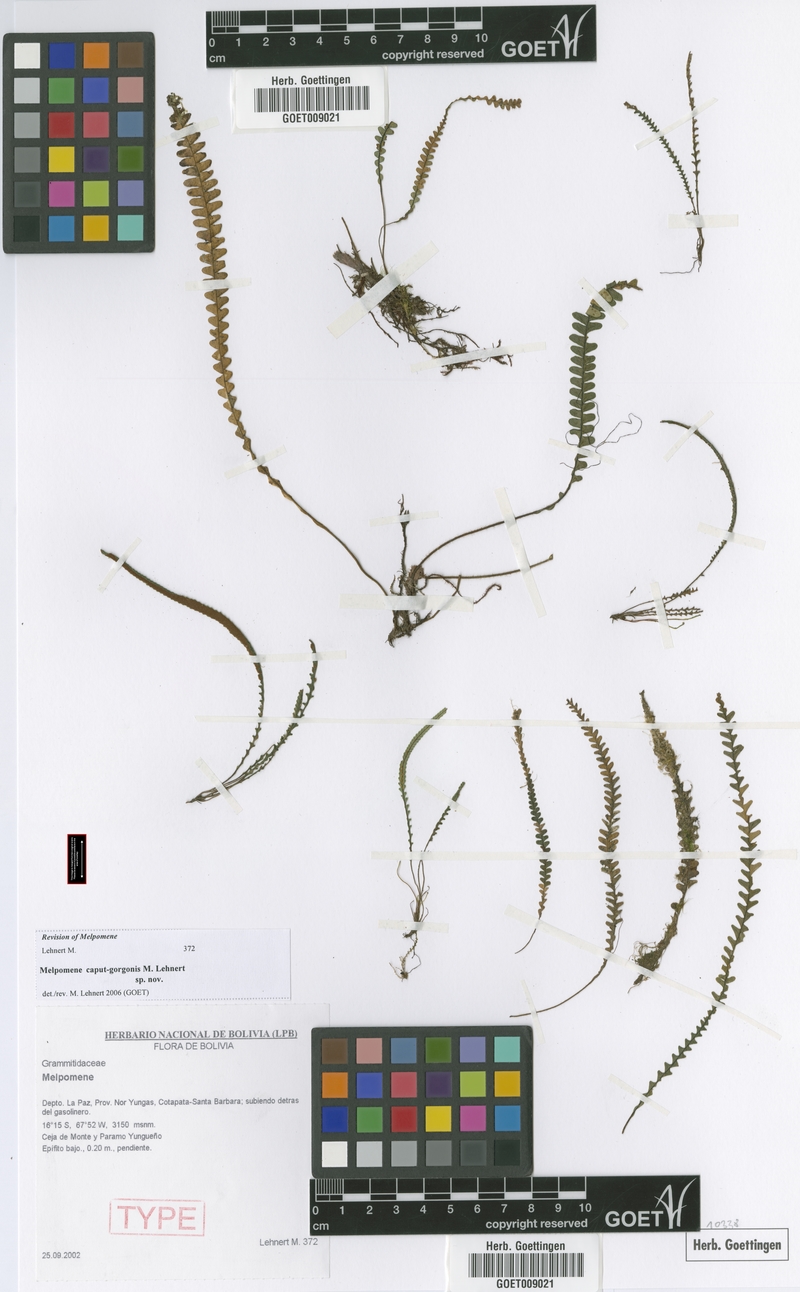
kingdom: Plantae
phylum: Tracheophyta
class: Polypodiopsida
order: Polypodiales
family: Polypodiaceae
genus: Melpomene
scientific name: Melpomene caput-gorgonis
